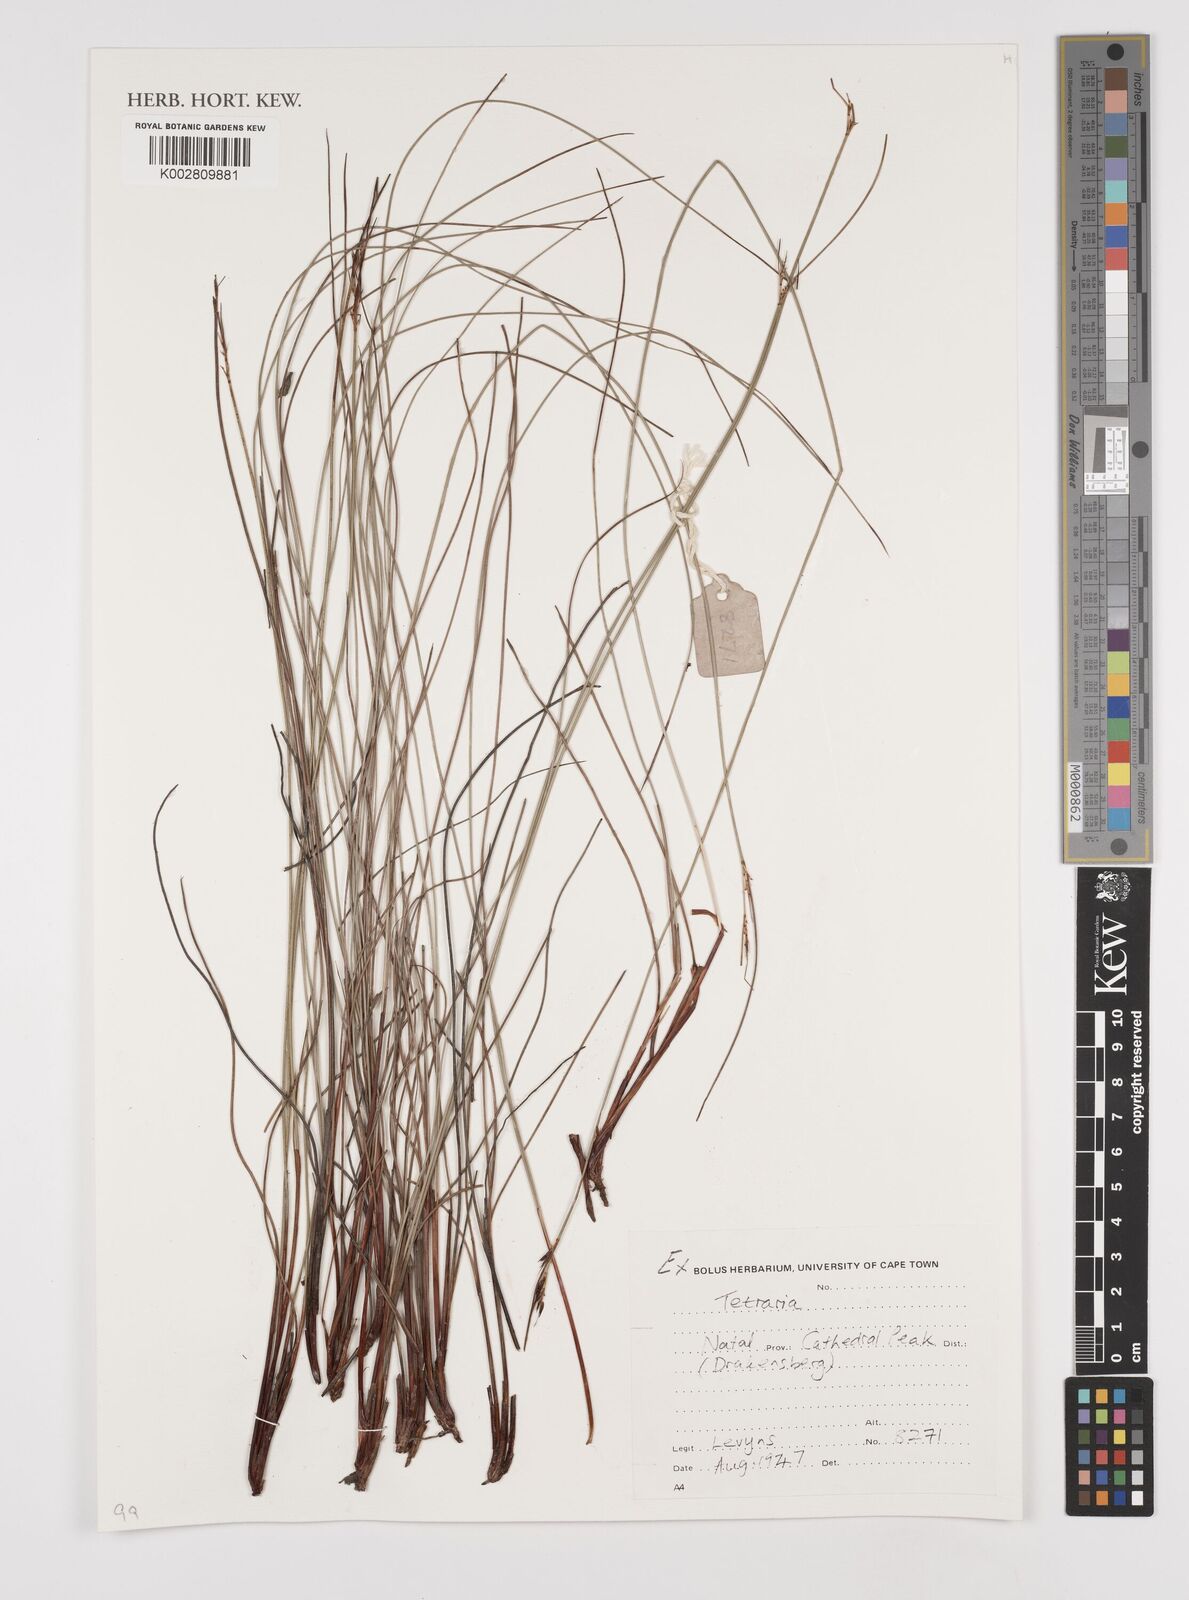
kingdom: Plantae
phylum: Tracheophyta
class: Liliopsida
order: Poales
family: Cyperaceae
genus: Schoenus
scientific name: Schoenus
